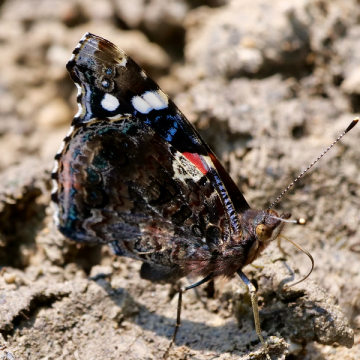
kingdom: Animalia
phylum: Arthropoda
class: Insecta
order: Lepidoptera
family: Nymphalidae
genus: Vanessa
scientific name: Vanessa atalanta
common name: Red Admiral
